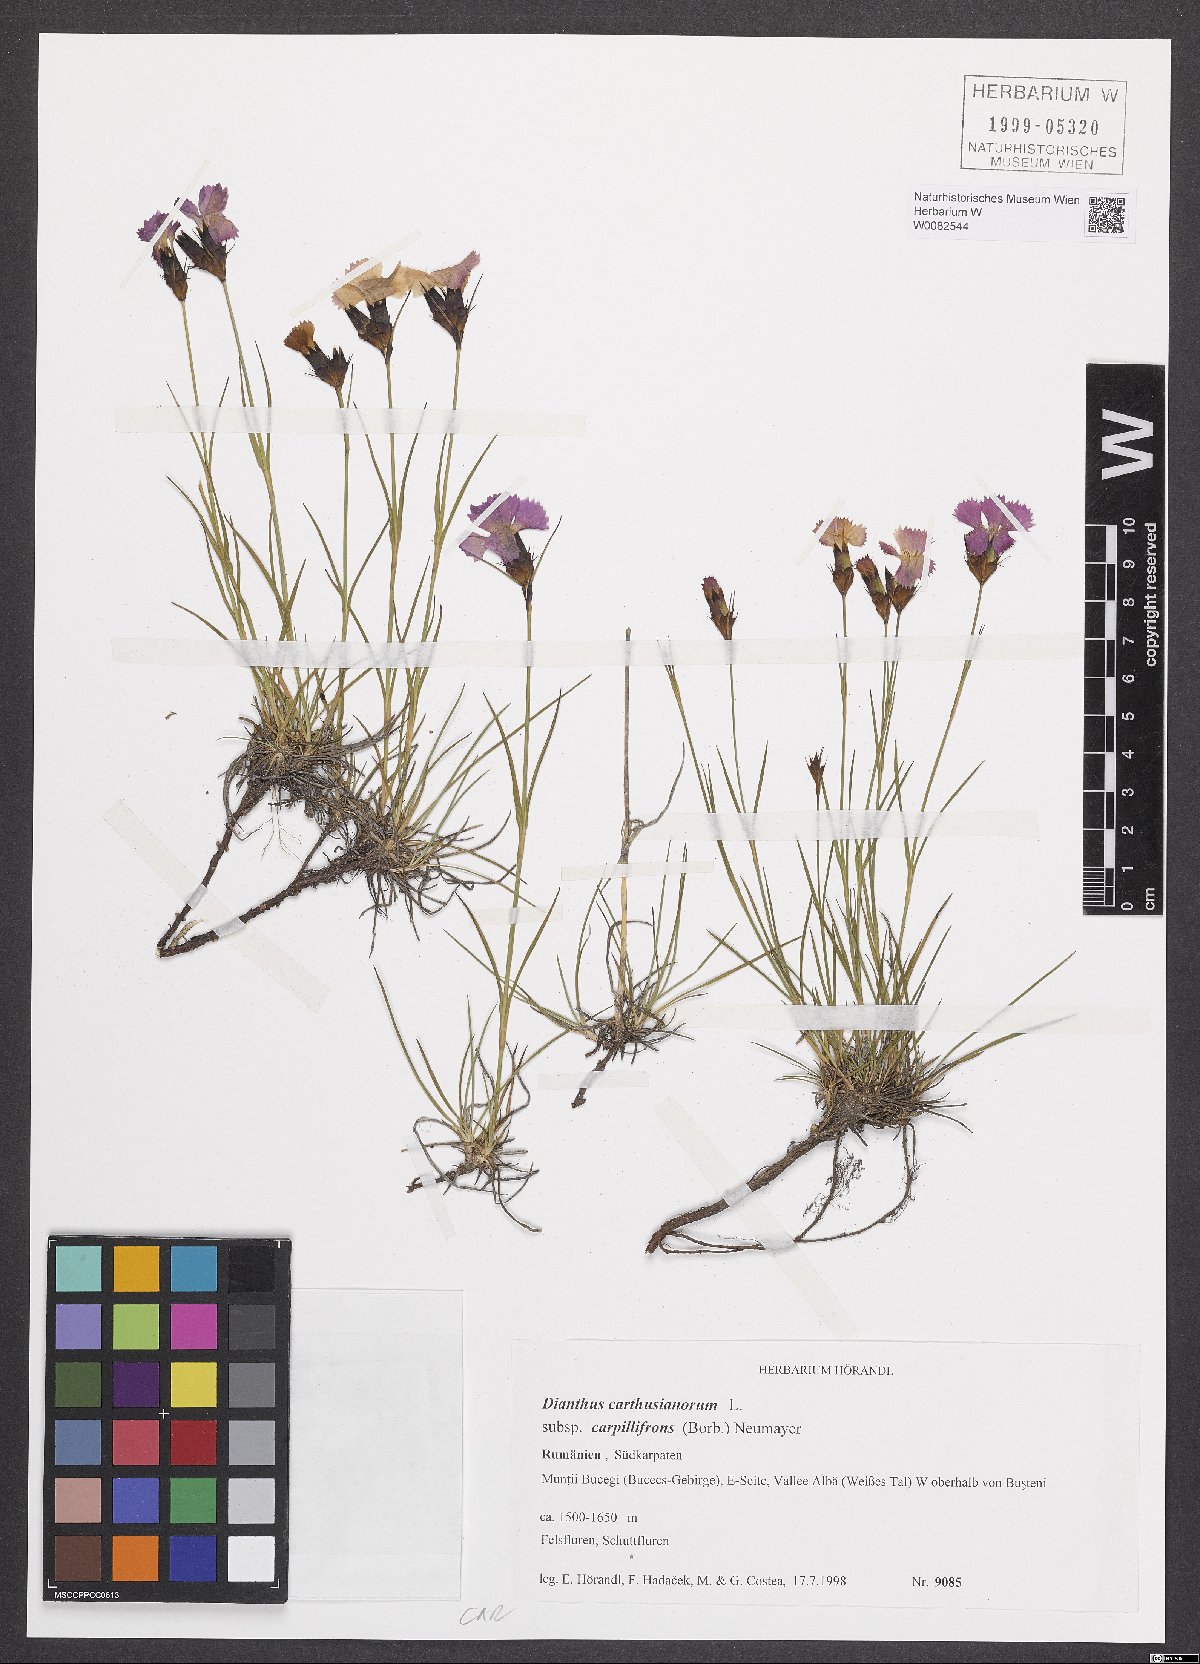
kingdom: Plantae
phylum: Tracheophyta
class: Magnoliopsida
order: Caryophyllales
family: Caryophyllaceae
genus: Dianthus
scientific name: Dianthus carthusianorum
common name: Carthusian pink
